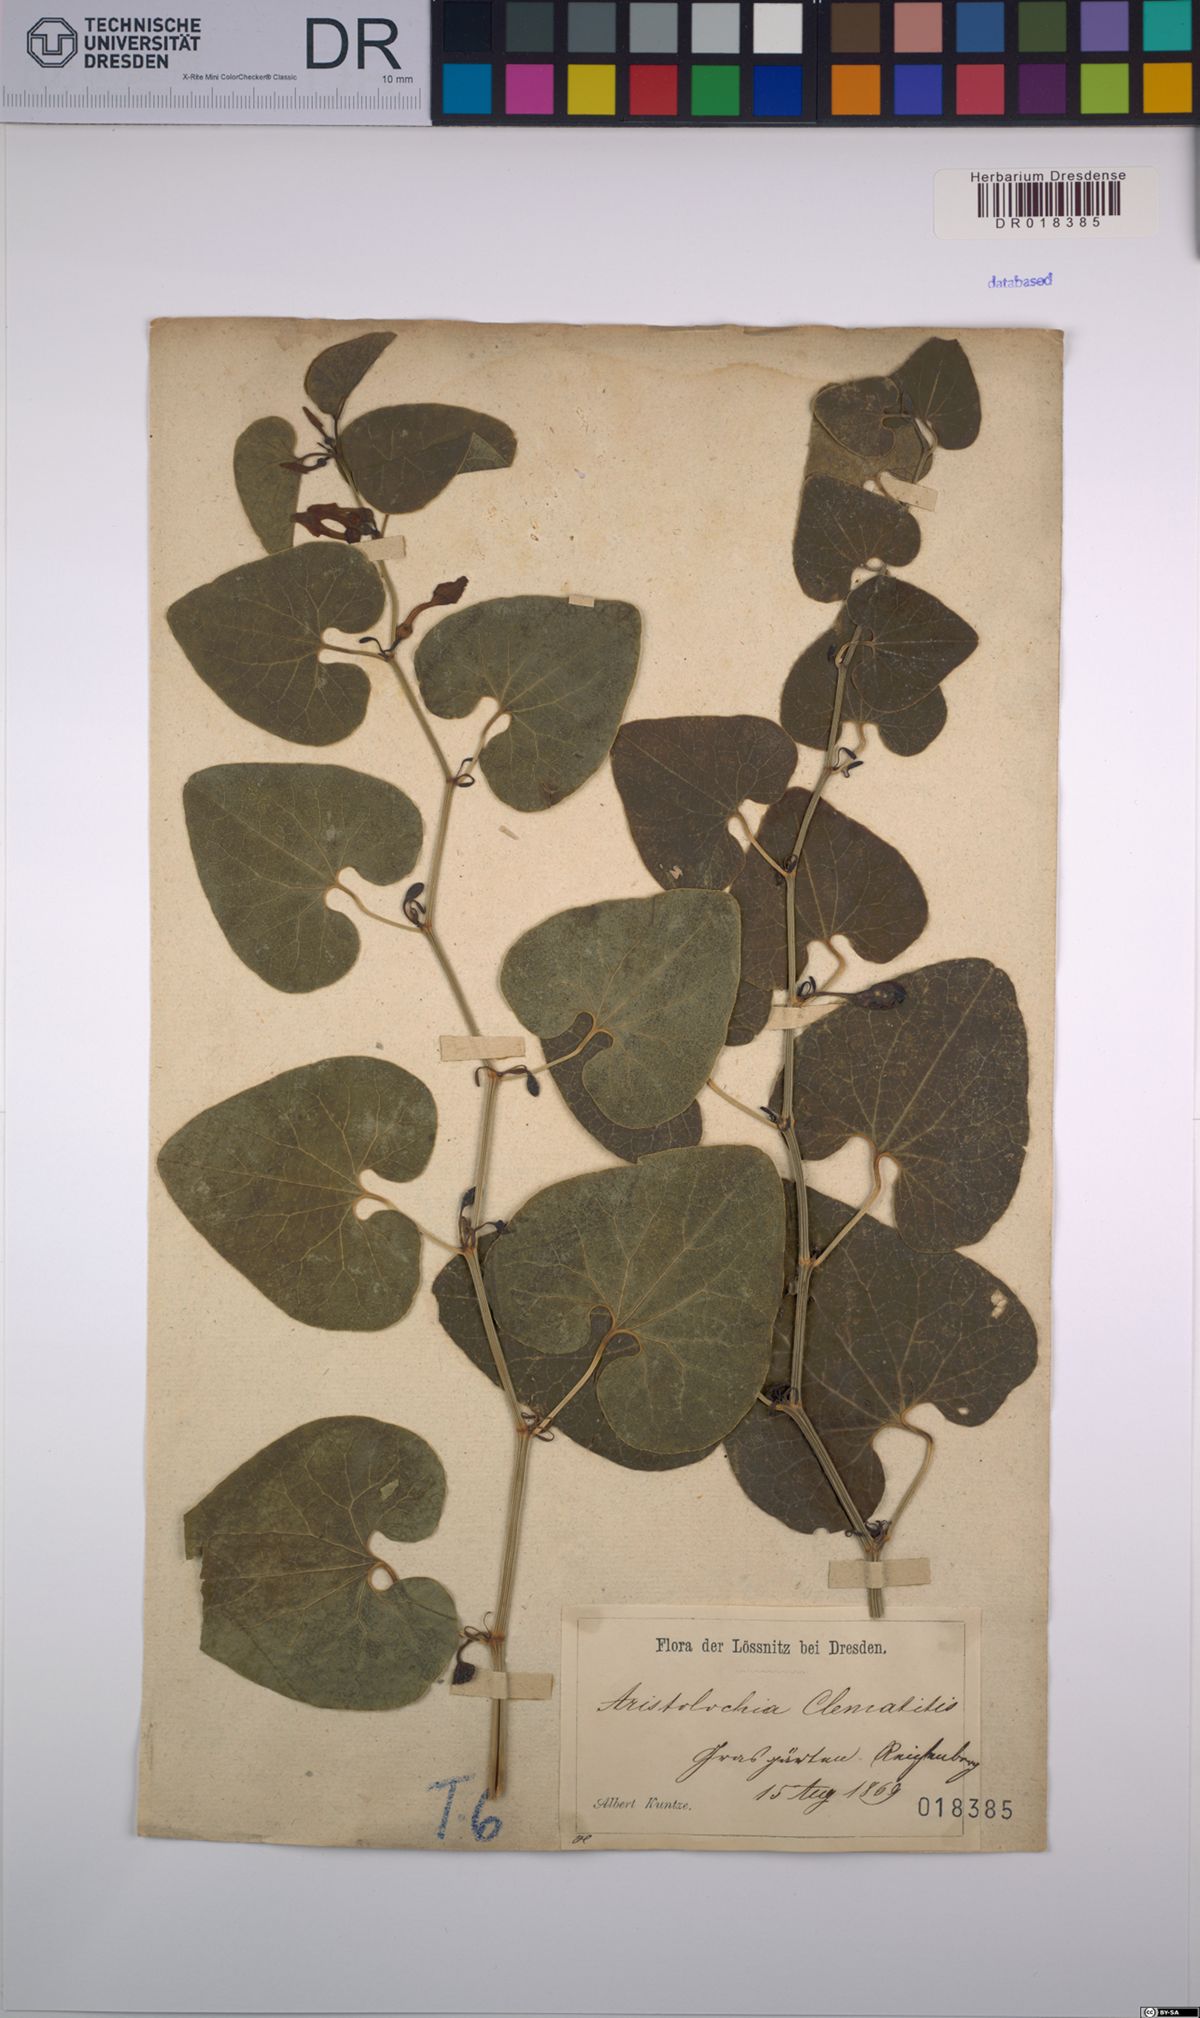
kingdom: Plantae
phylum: Tracheophyta
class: Magnoliopsida
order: Piperales
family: Aristolochiaceae
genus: Aristolochia
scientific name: Aristolochia clematitis
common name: Birthwort
